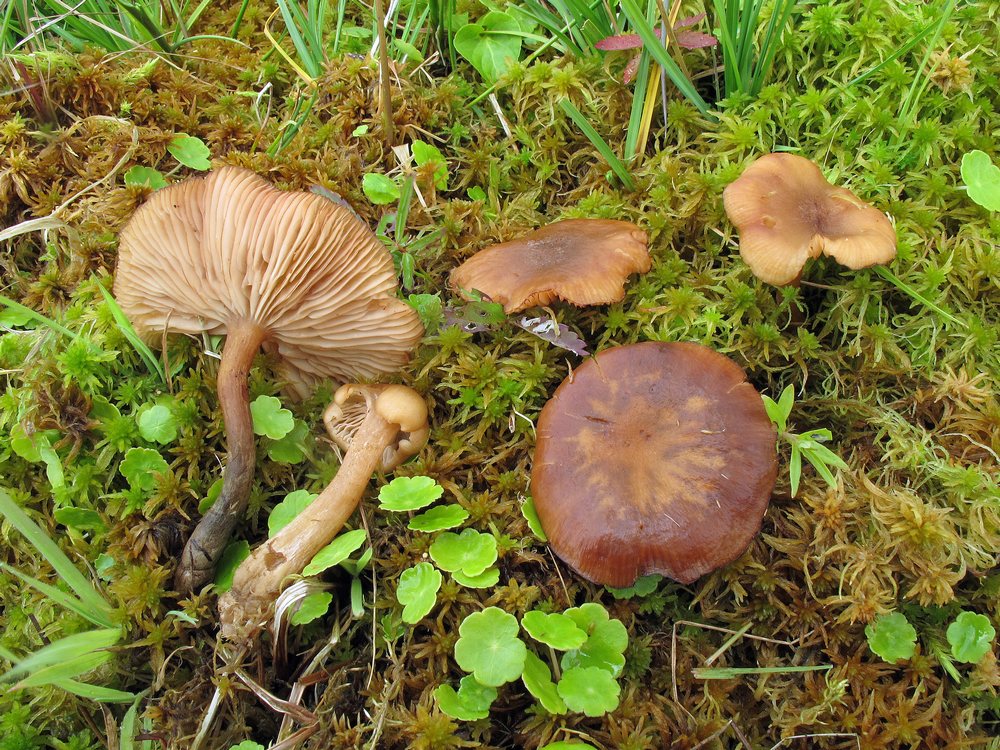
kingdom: Fungi
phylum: Basidiomycota
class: Agaricomycetes
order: Agaricales
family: Physalacriaceae
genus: Desarmillaria
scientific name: Desarmillaria ectypa
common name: ringløs honningsvamp
